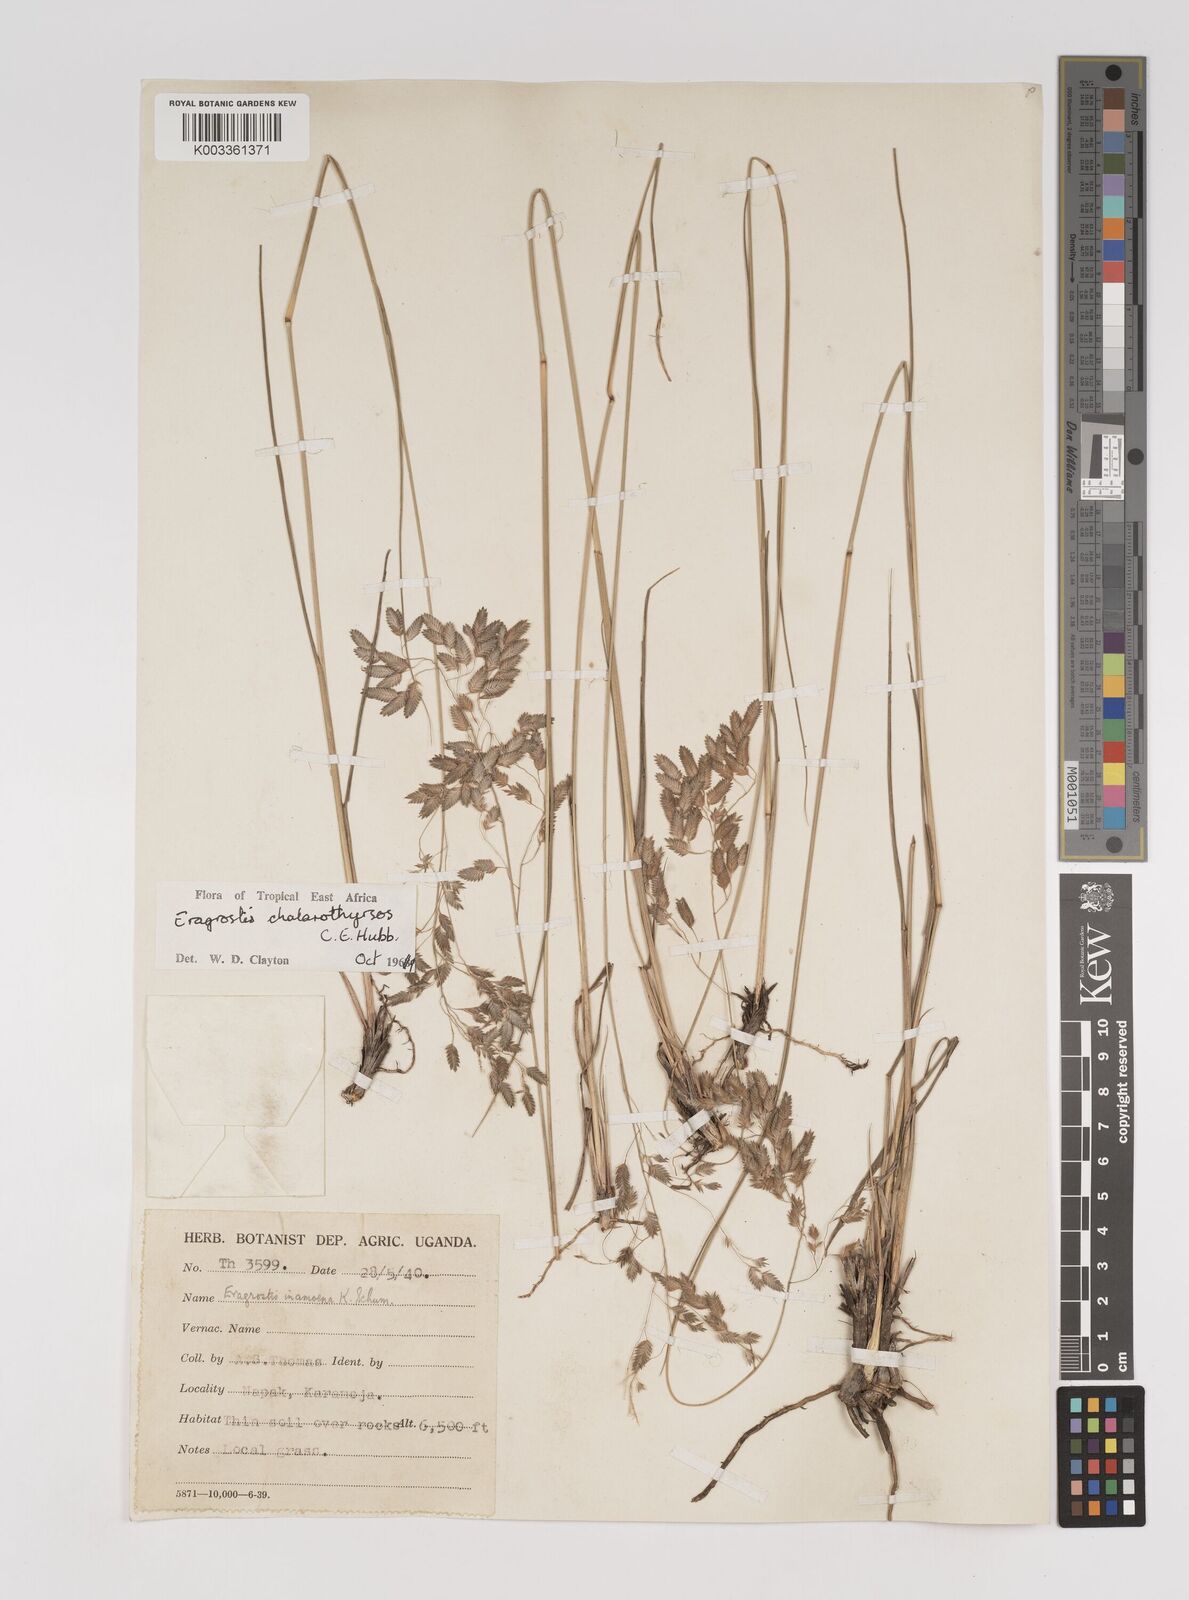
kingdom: Plantae
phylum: Tracheophyta
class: Liliopsida
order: Poales
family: Poaceae
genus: Eragrostis
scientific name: Eragrostis chalarothyrsos
